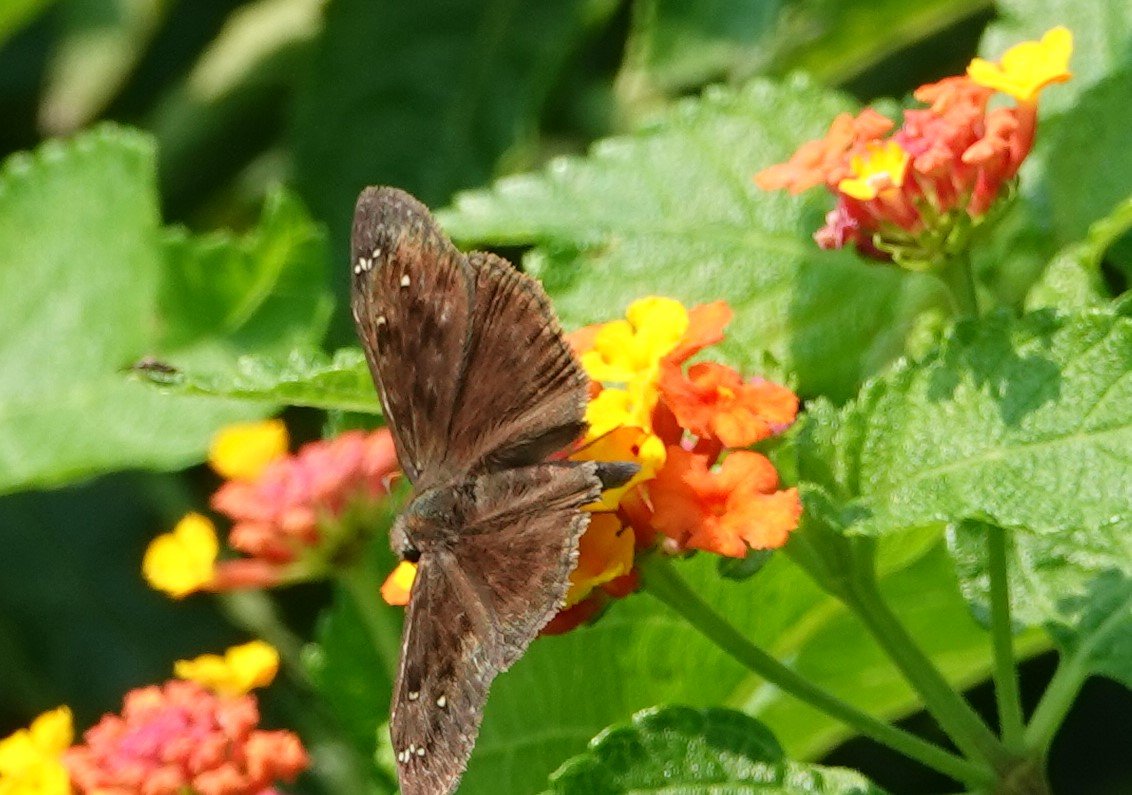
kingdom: Animalia
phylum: Arthropoda
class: Insecta
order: Lepidoptera
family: Hesperiidae
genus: Gesta
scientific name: Gesta
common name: Horace's Duskywing
